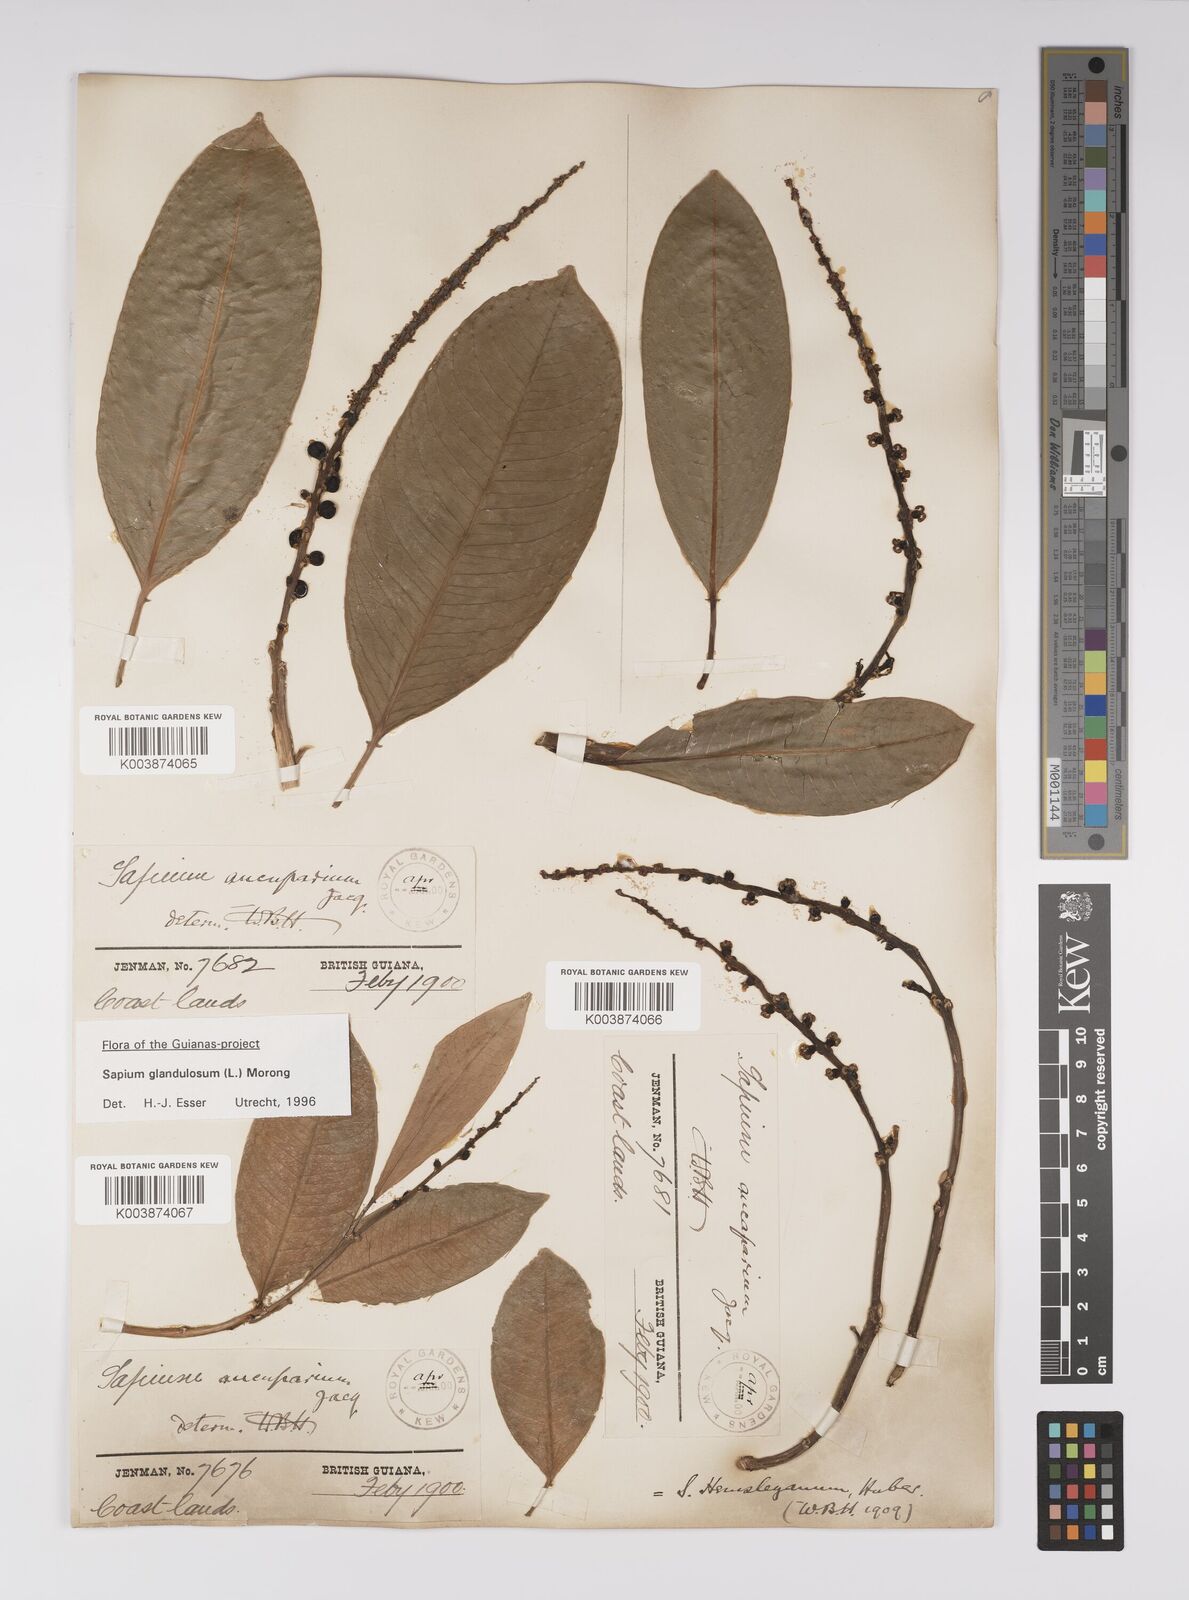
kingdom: Plantae
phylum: Tracheophyta
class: Magnoliopsida
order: Malpighiales
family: Euphorbiaceae
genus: Sapium
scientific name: Sapium glandulosum
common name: Milktree
